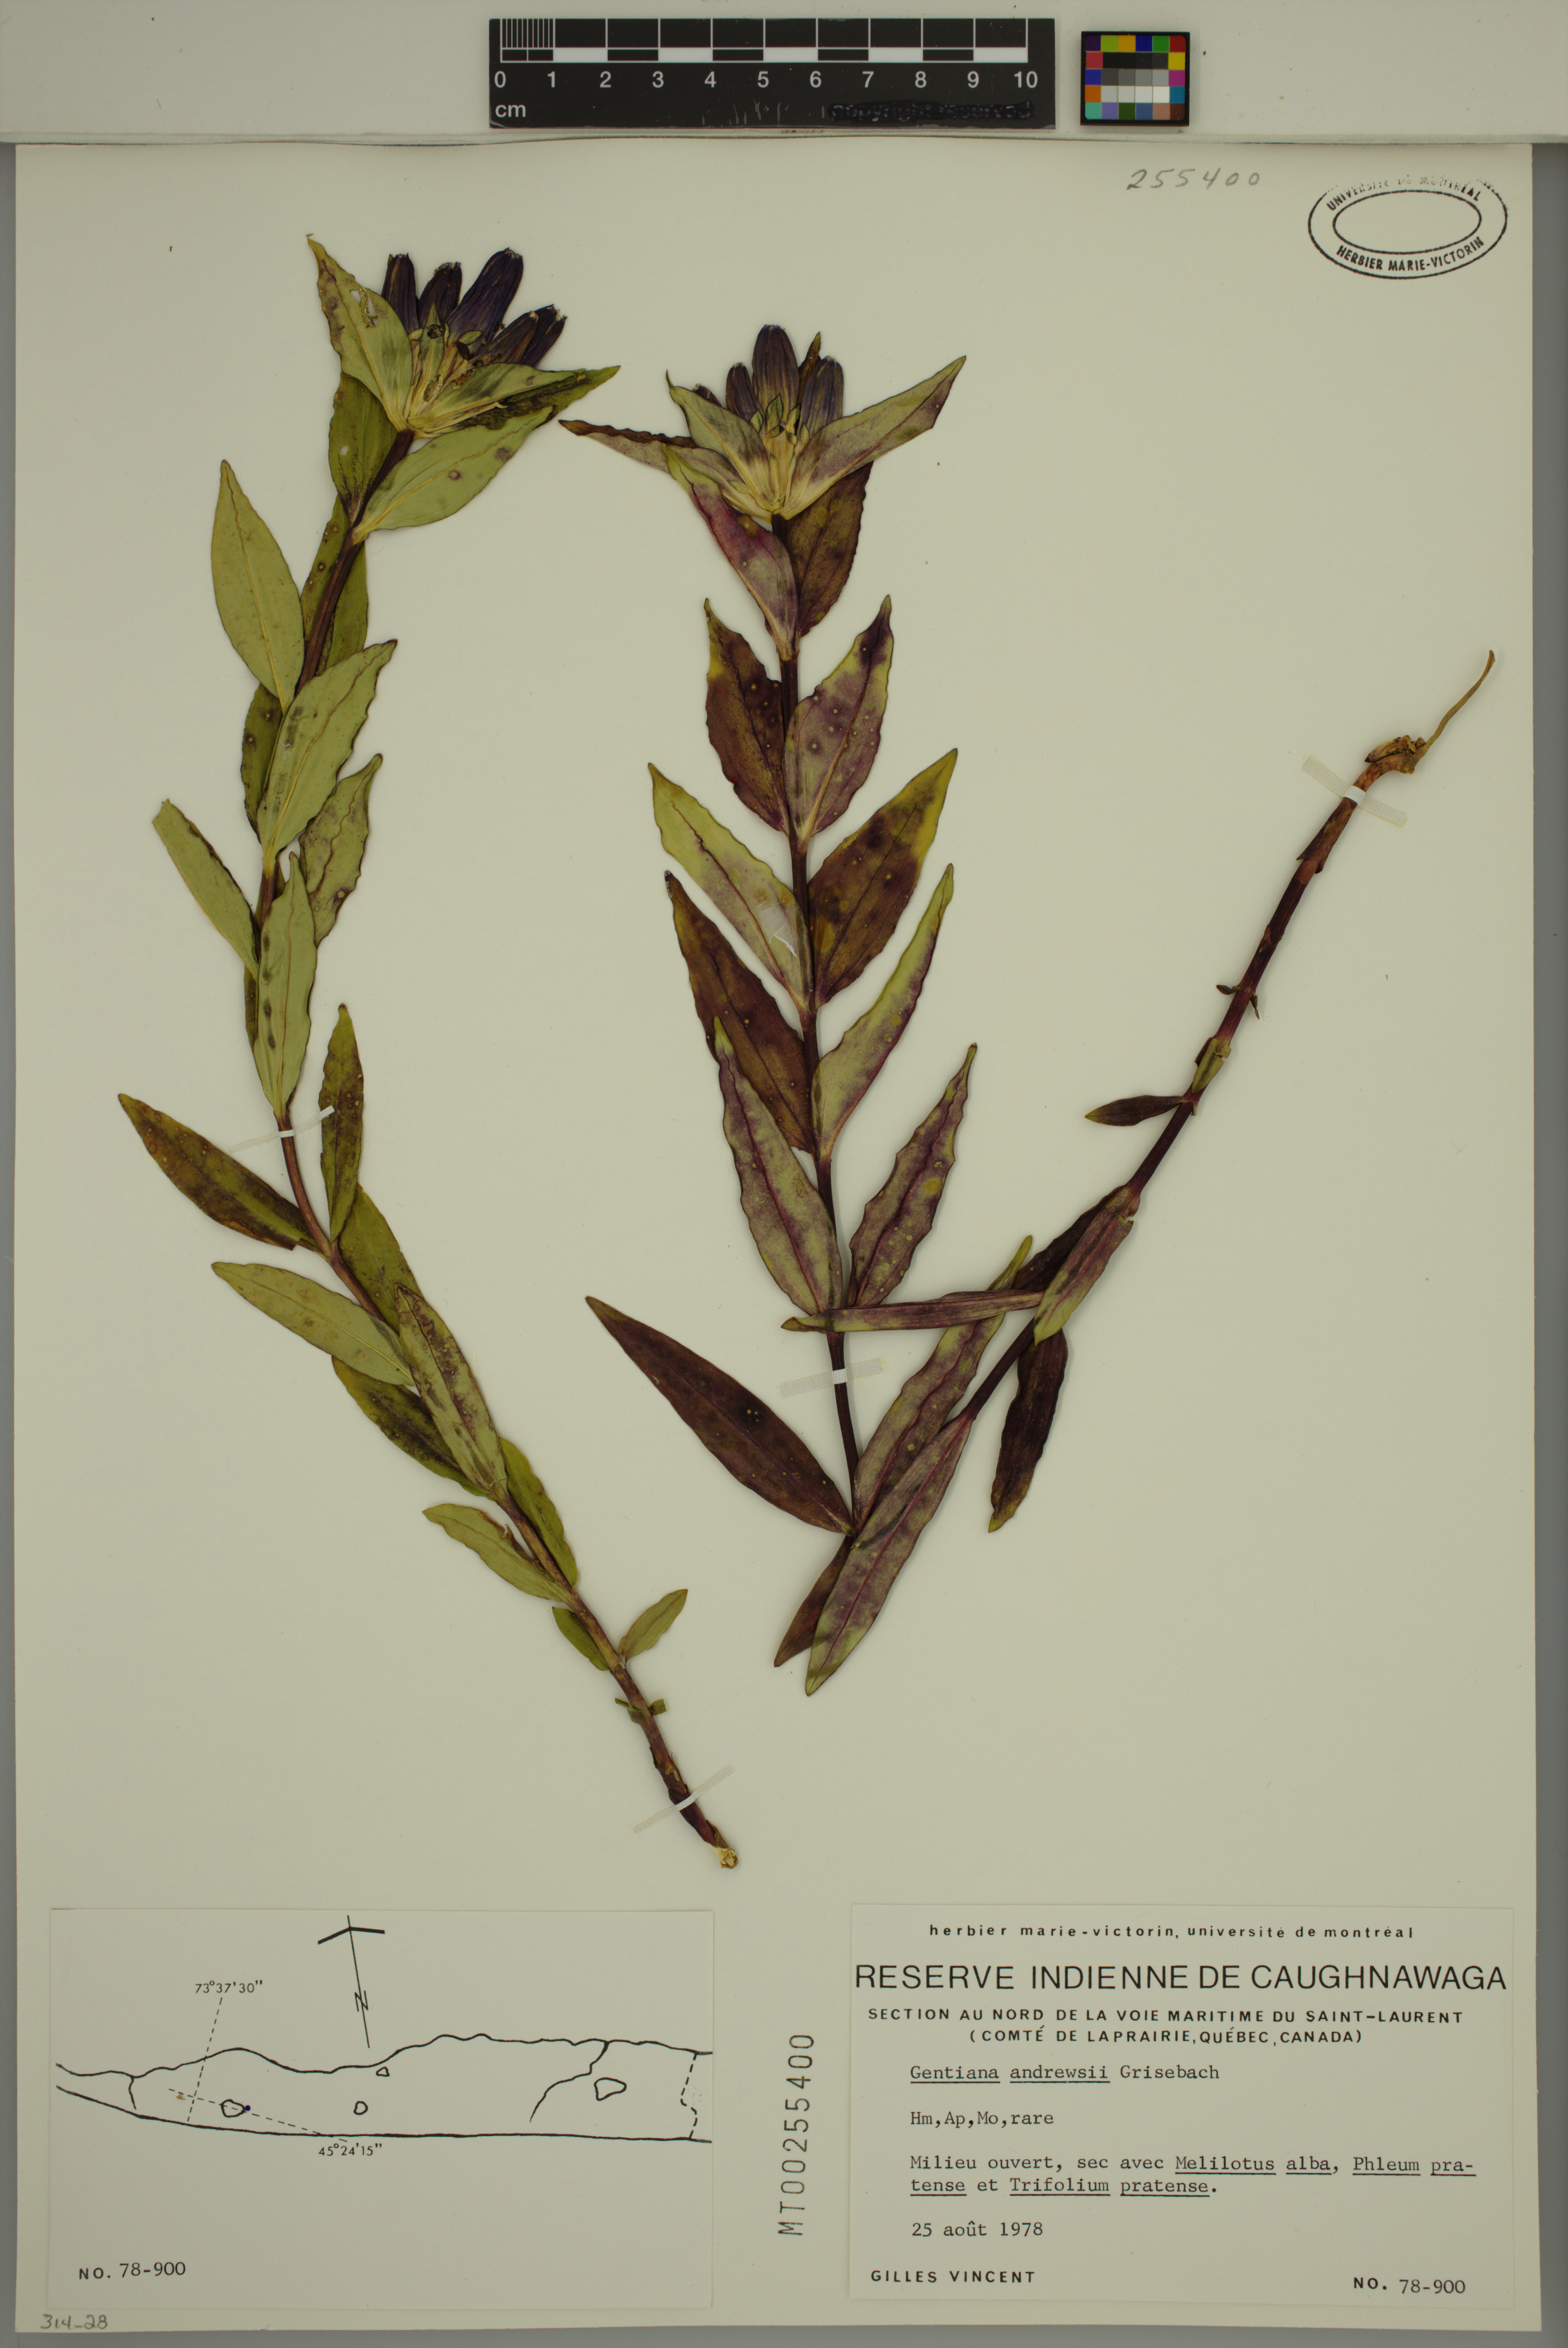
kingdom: Plantae
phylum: Tracheophyta
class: Magnoliopsida
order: Gentianales
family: Gentianaceae
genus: Gentiana
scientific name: Gentiana andrewsii
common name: Bottle gentian
